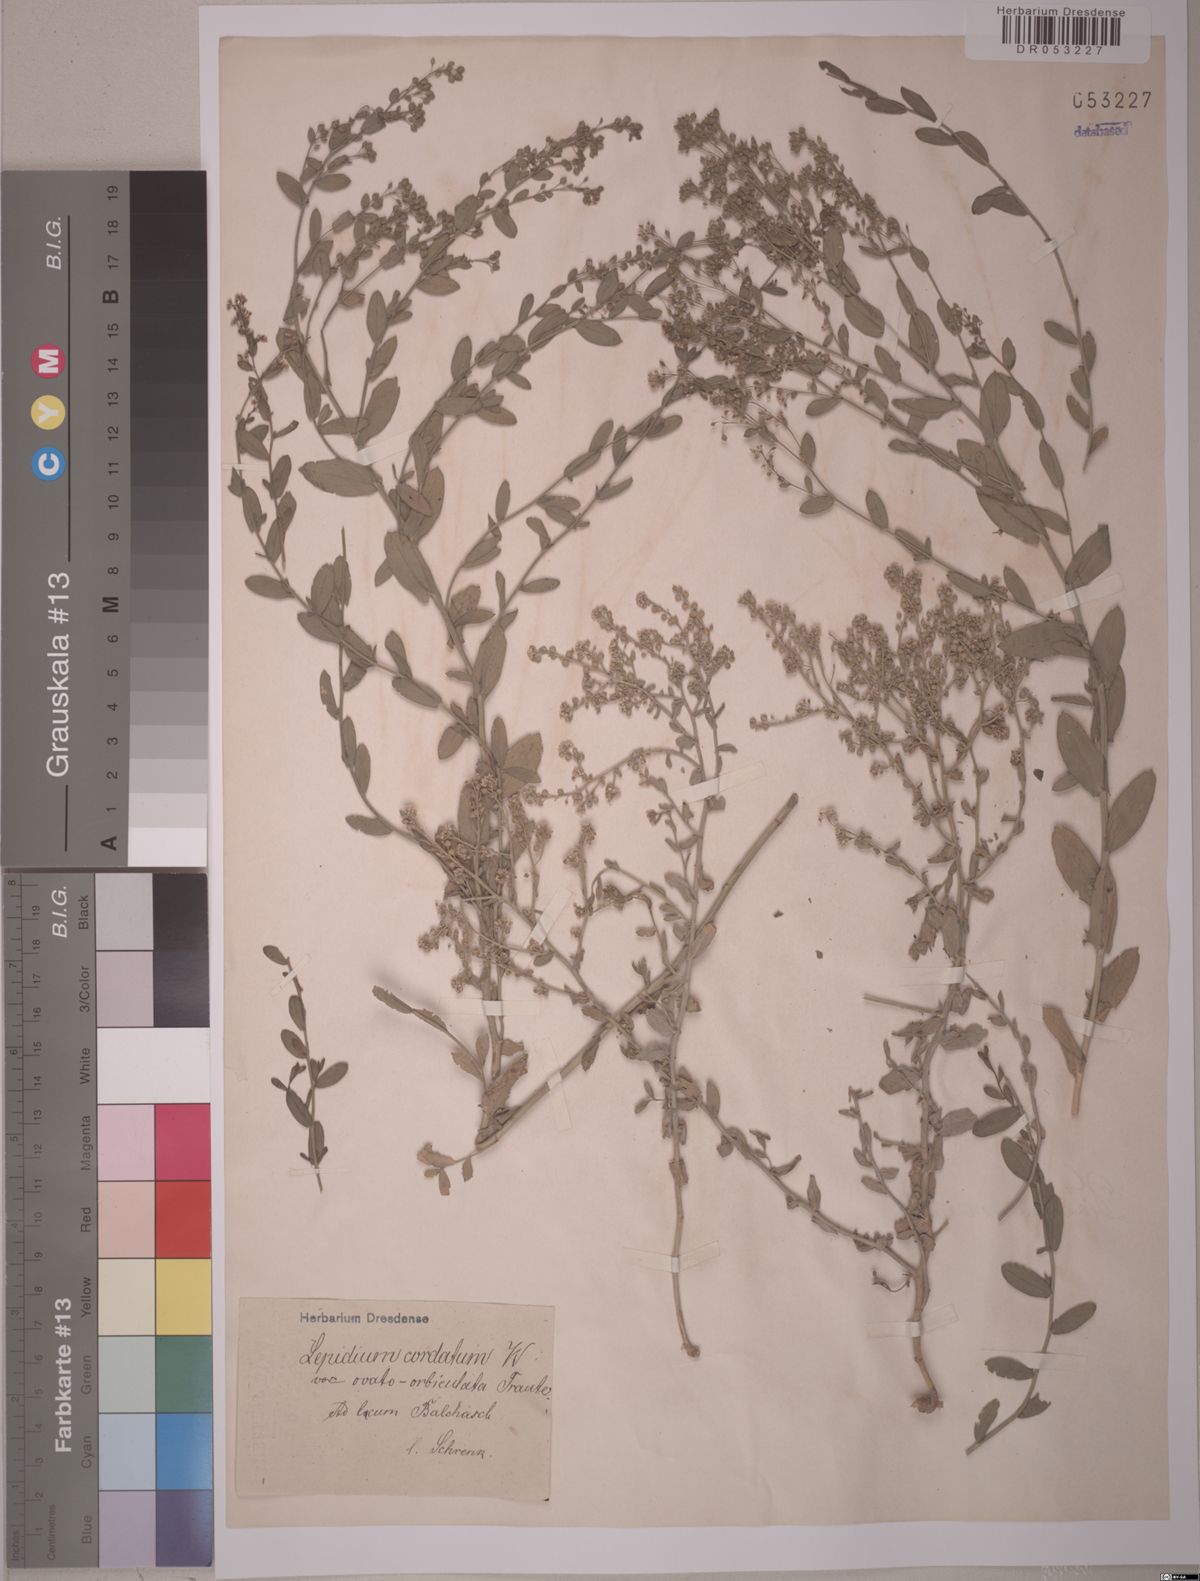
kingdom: Plantae
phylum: Tracheophyta
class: Magnoliopsida
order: Brassicales
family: Brassicaceae
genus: Lepidium
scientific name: Lepidium cordatum
